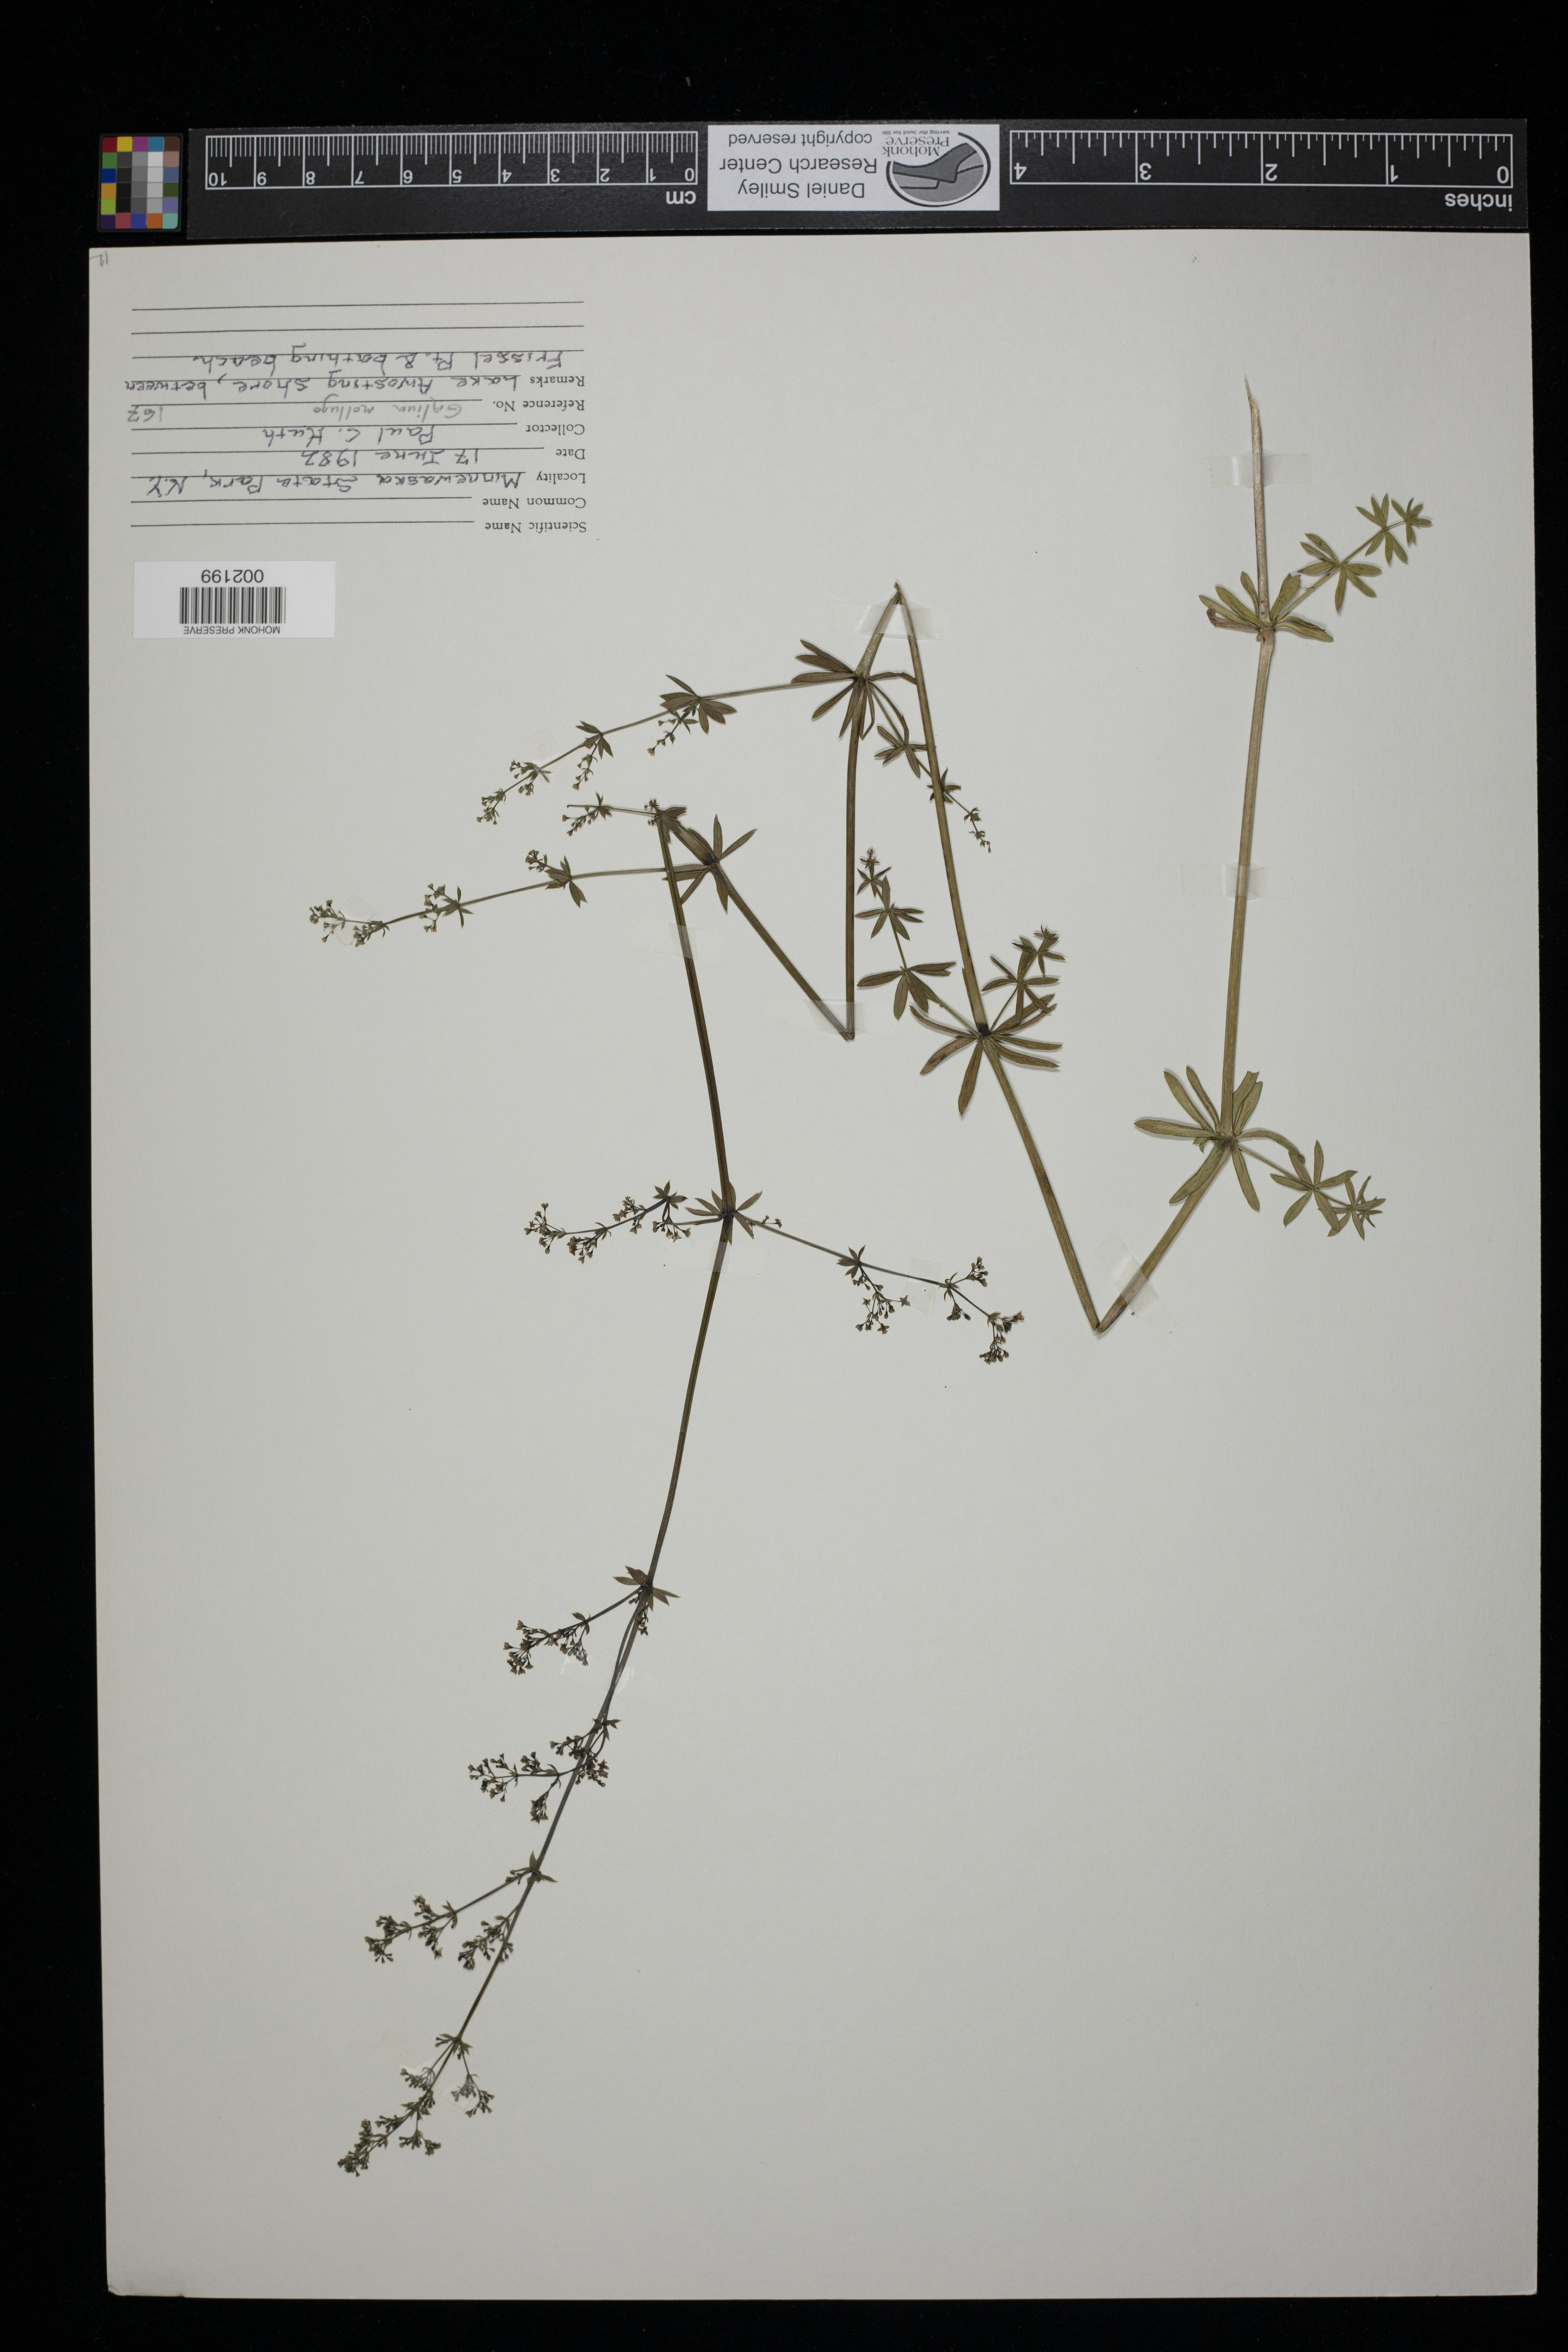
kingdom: Plantae
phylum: Tracheophyta
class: Magnoliopsida
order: Gentianales
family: Rubiaceae
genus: Galium
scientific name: Galium mollugo
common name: Hedge bedstraw
